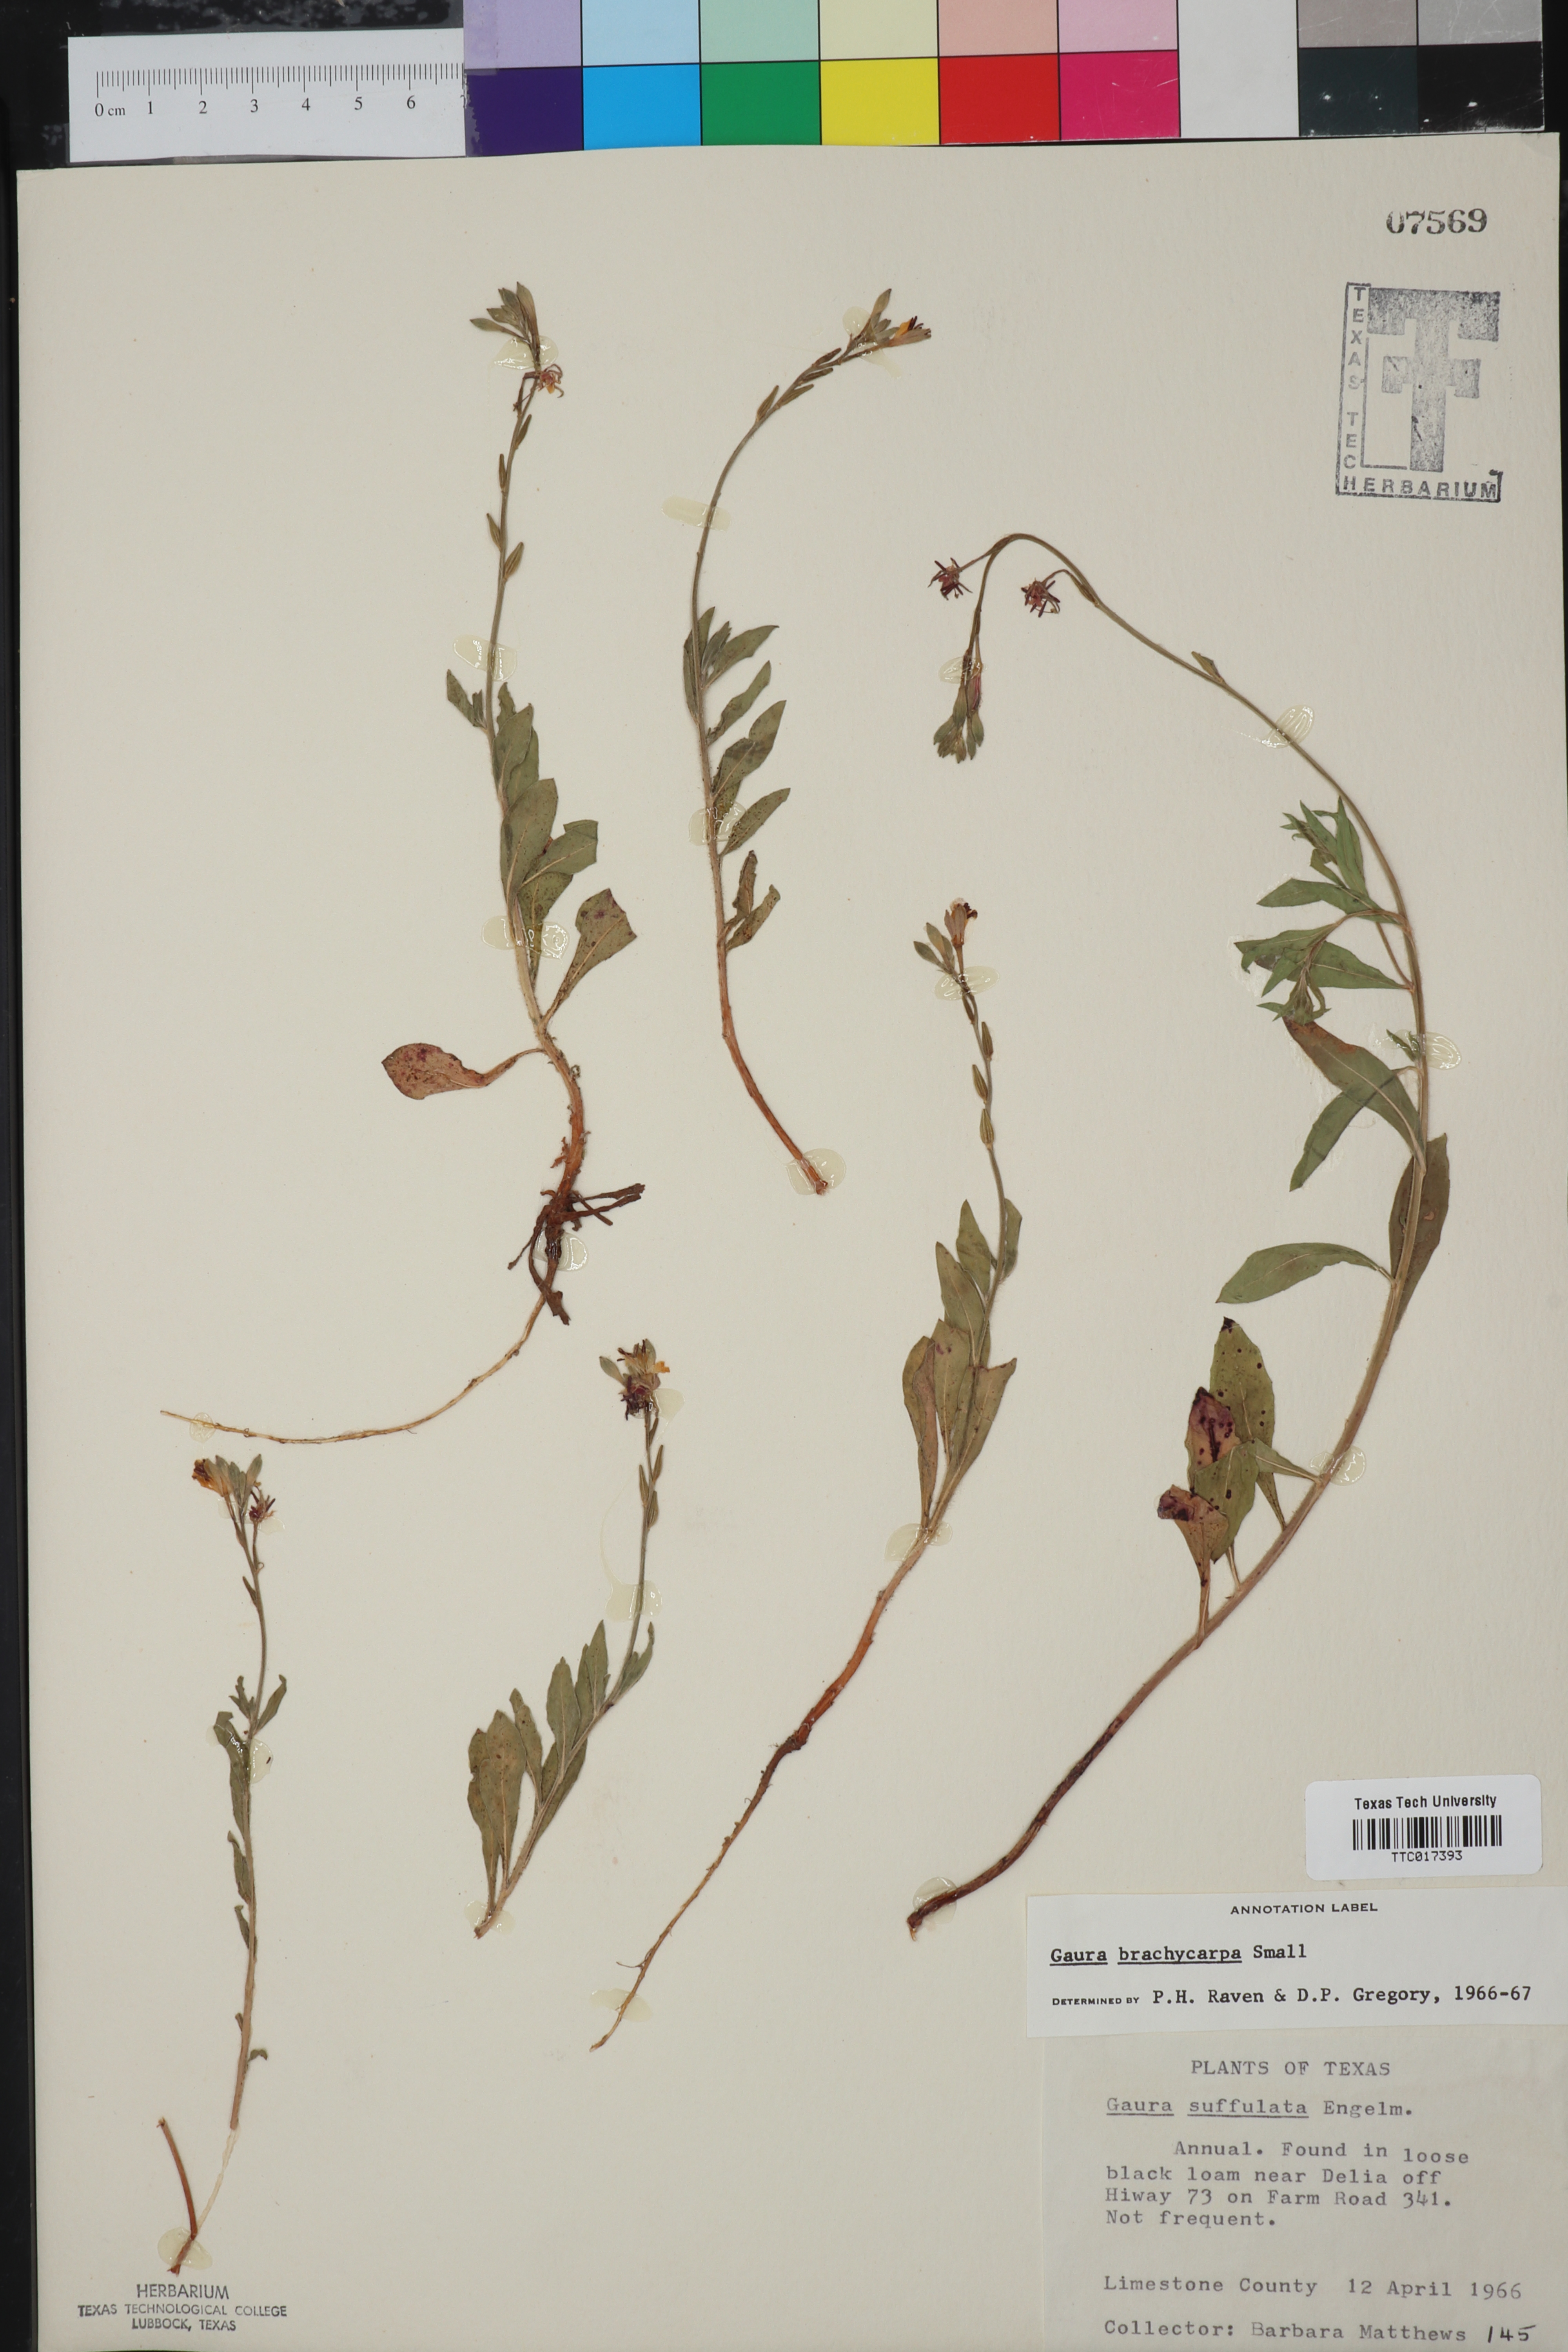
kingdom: Plantae
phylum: Tracheophyta
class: Magnoliopsida
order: Myrtales
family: Onagraceae
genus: Oenothera
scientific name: Oenothera patriciae
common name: Plains beeblossom
